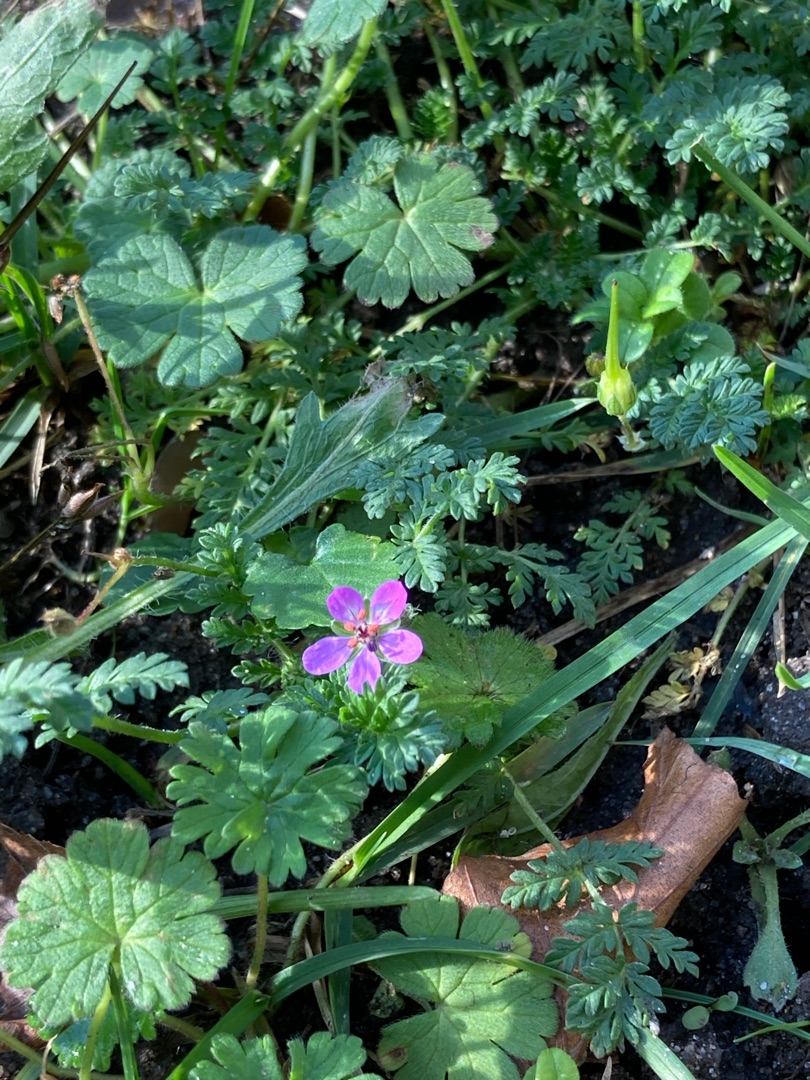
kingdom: Plantae
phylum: Tracheophyta
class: Magnoliopsida
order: Geraniales
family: Geraniaceae
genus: Erodium
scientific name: Erodium cicutarium
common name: Hejrenæb
